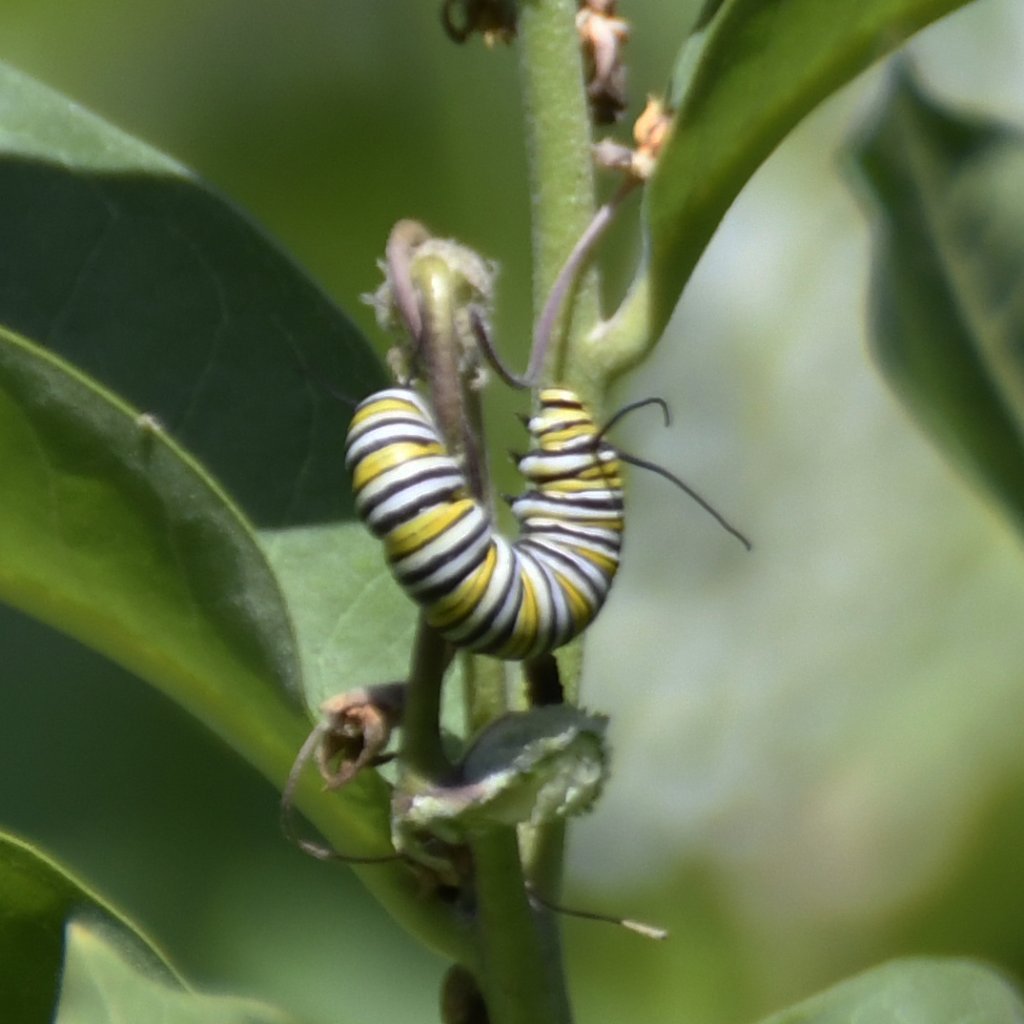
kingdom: Animalia
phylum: Arthropoda
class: Insecta
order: Lepidoptera
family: Nymphalidae
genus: Danaus
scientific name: Danaus plexippus
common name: Monarch
